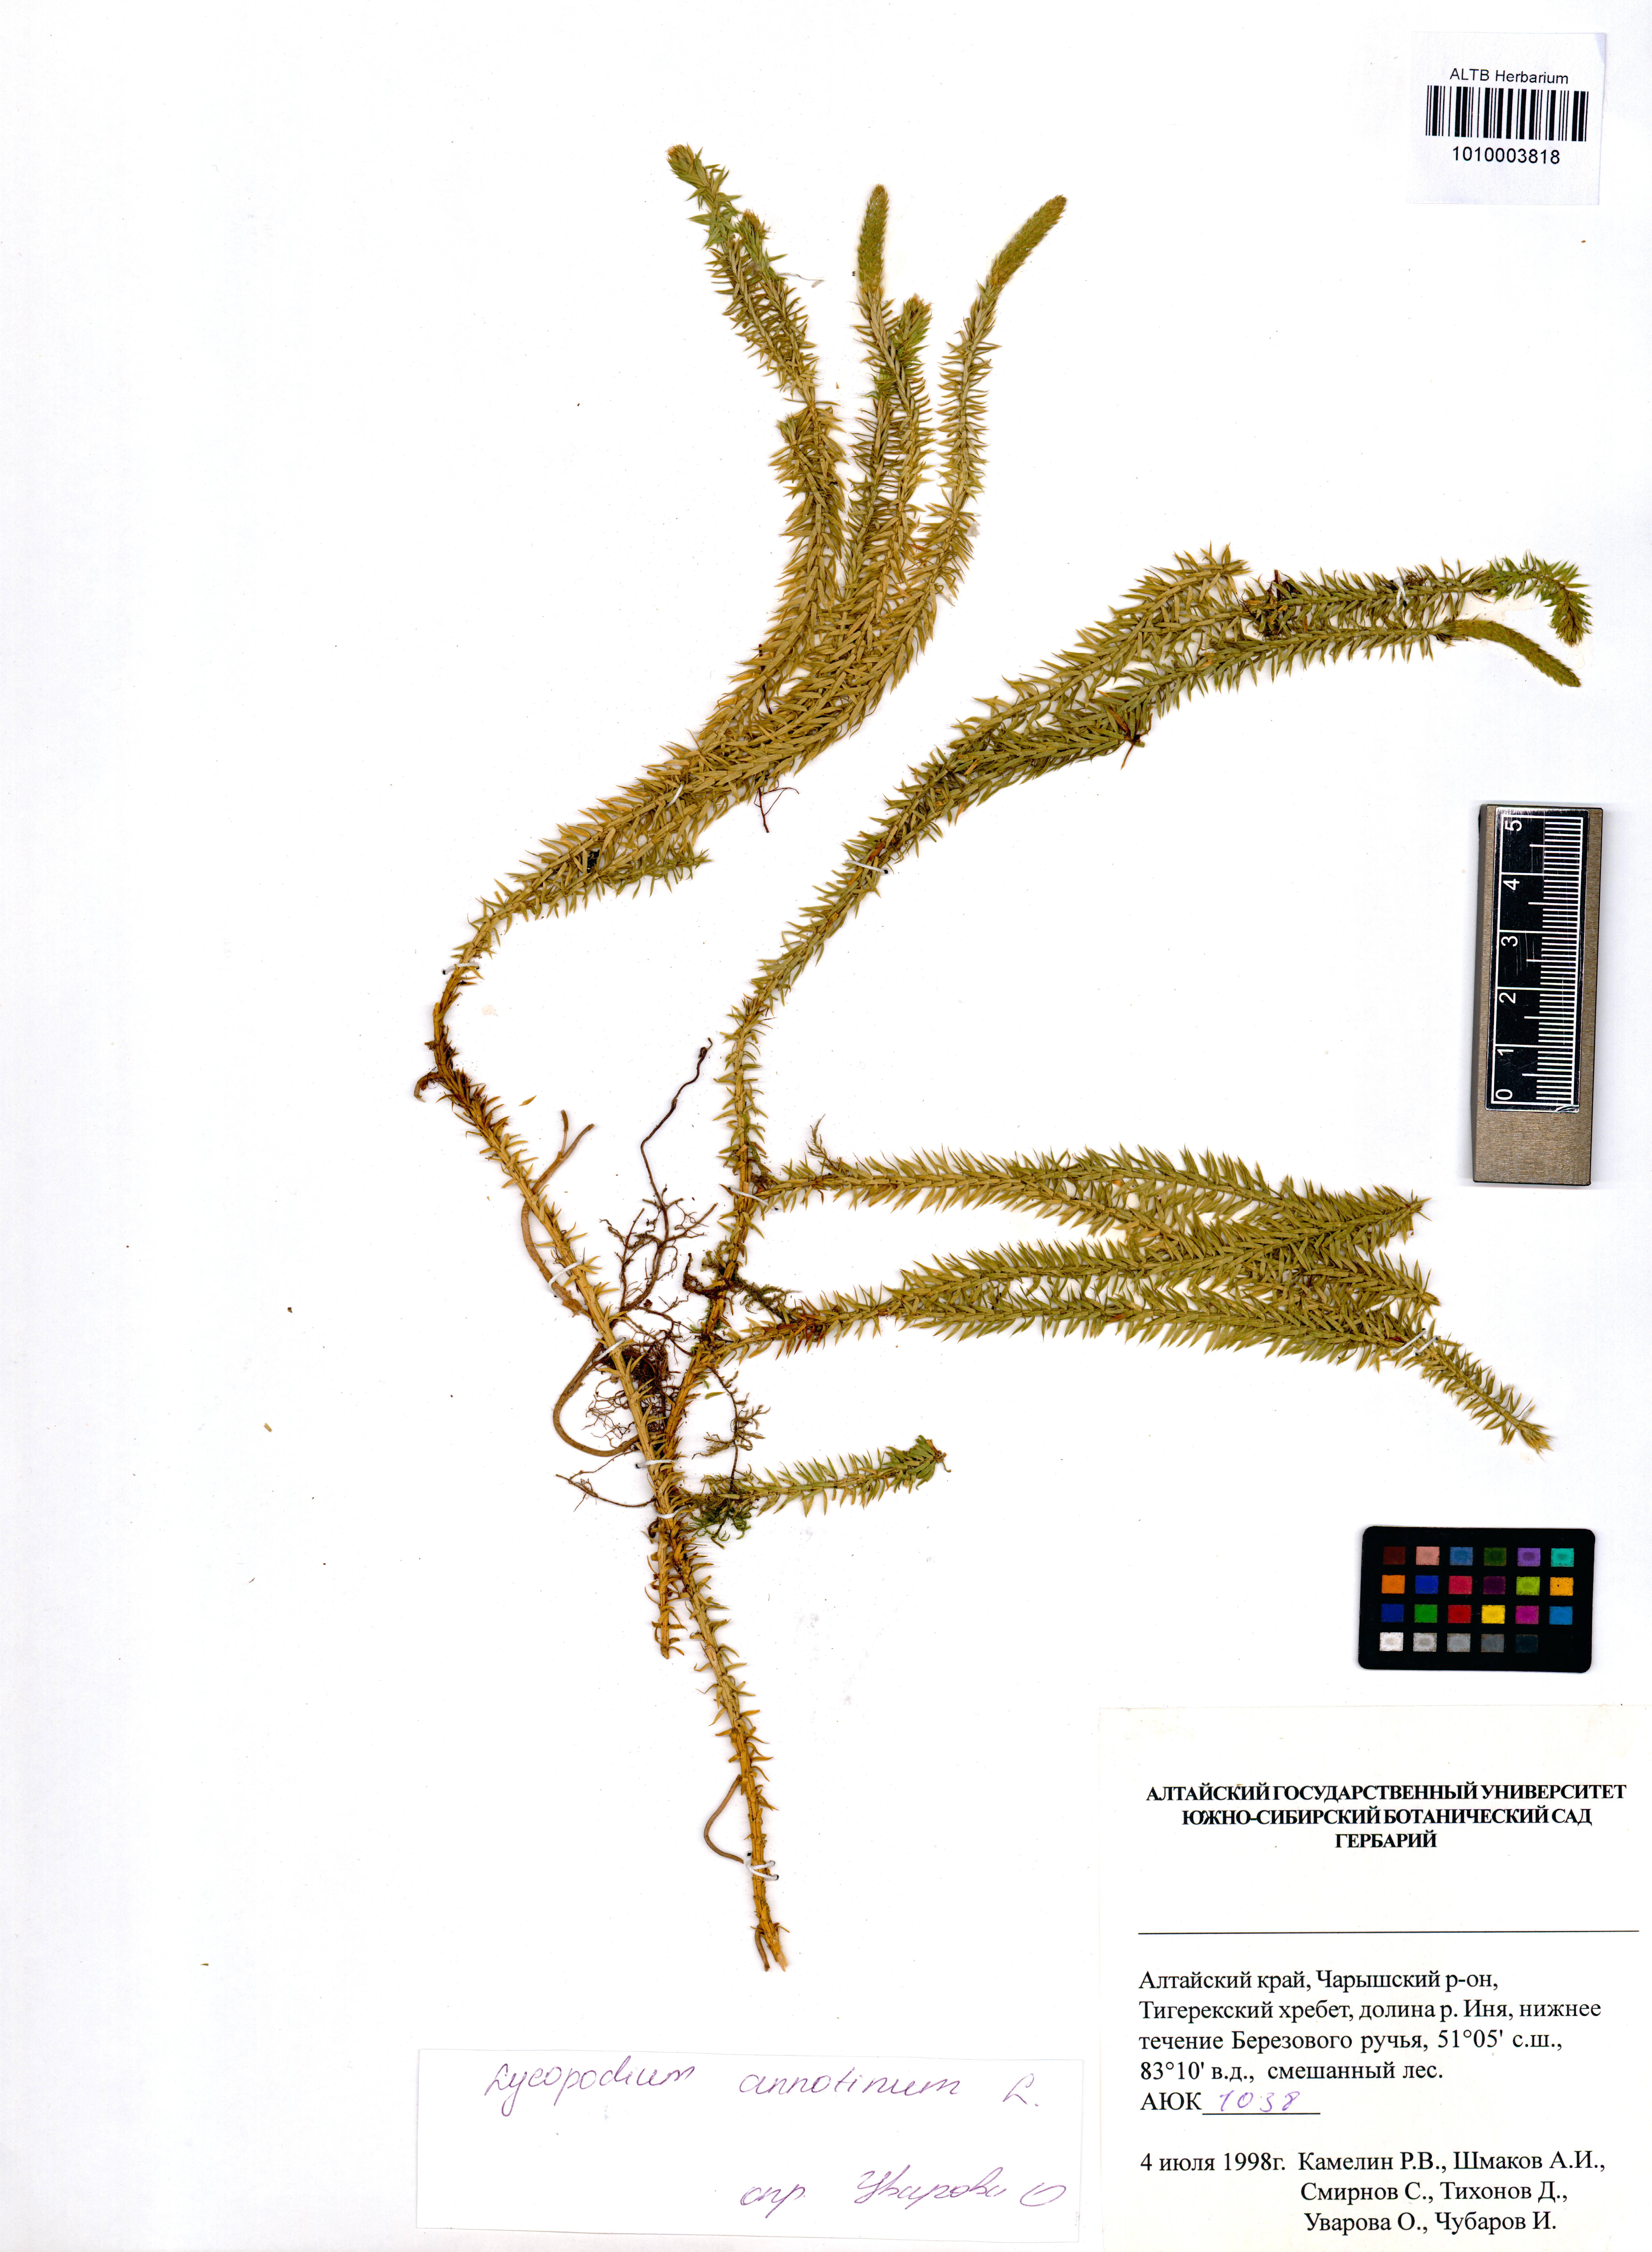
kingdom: Plantae
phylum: Tracheophyta
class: Lycopodiopsida
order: Lycopodiales
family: Lycopodiaceae
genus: Spinulum
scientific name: Spinulum annotinum
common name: Interrupted club-moss
